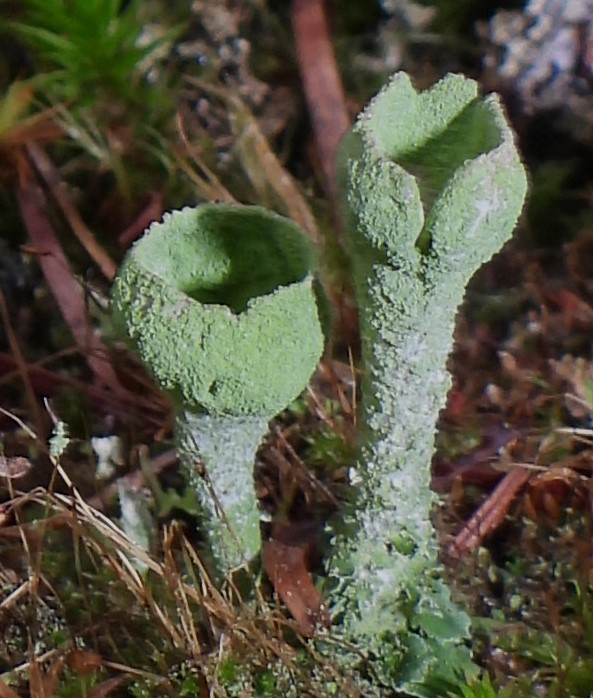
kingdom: Fungi
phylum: Ascomycota
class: Lecanoromycetes
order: Lecanorales
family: Cladoniaceae
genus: Cladonia
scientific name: Cladonia
